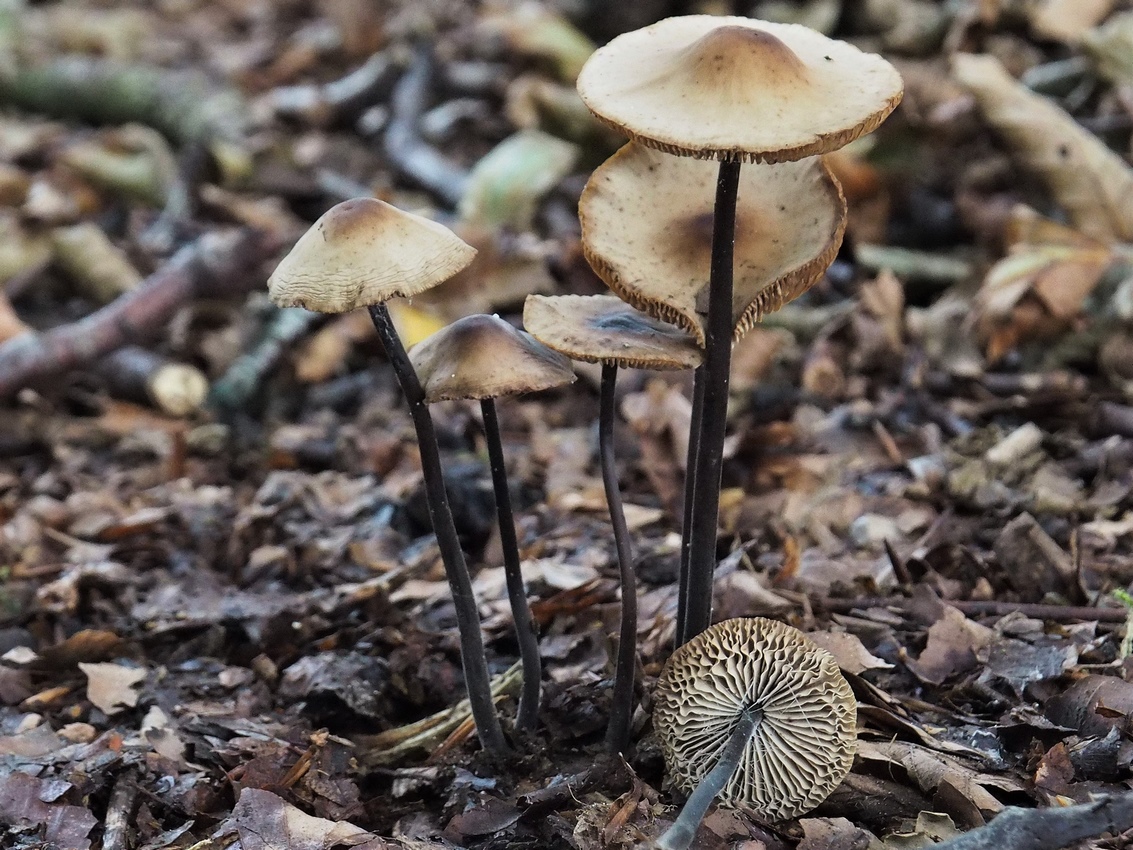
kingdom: Fungi
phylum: Basidiomycota
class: Agaricomycetes
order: Agaricales
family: Omphalotaceae
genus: Mycetinis
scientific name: Mycetinis alliaceus
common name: stor løghat
